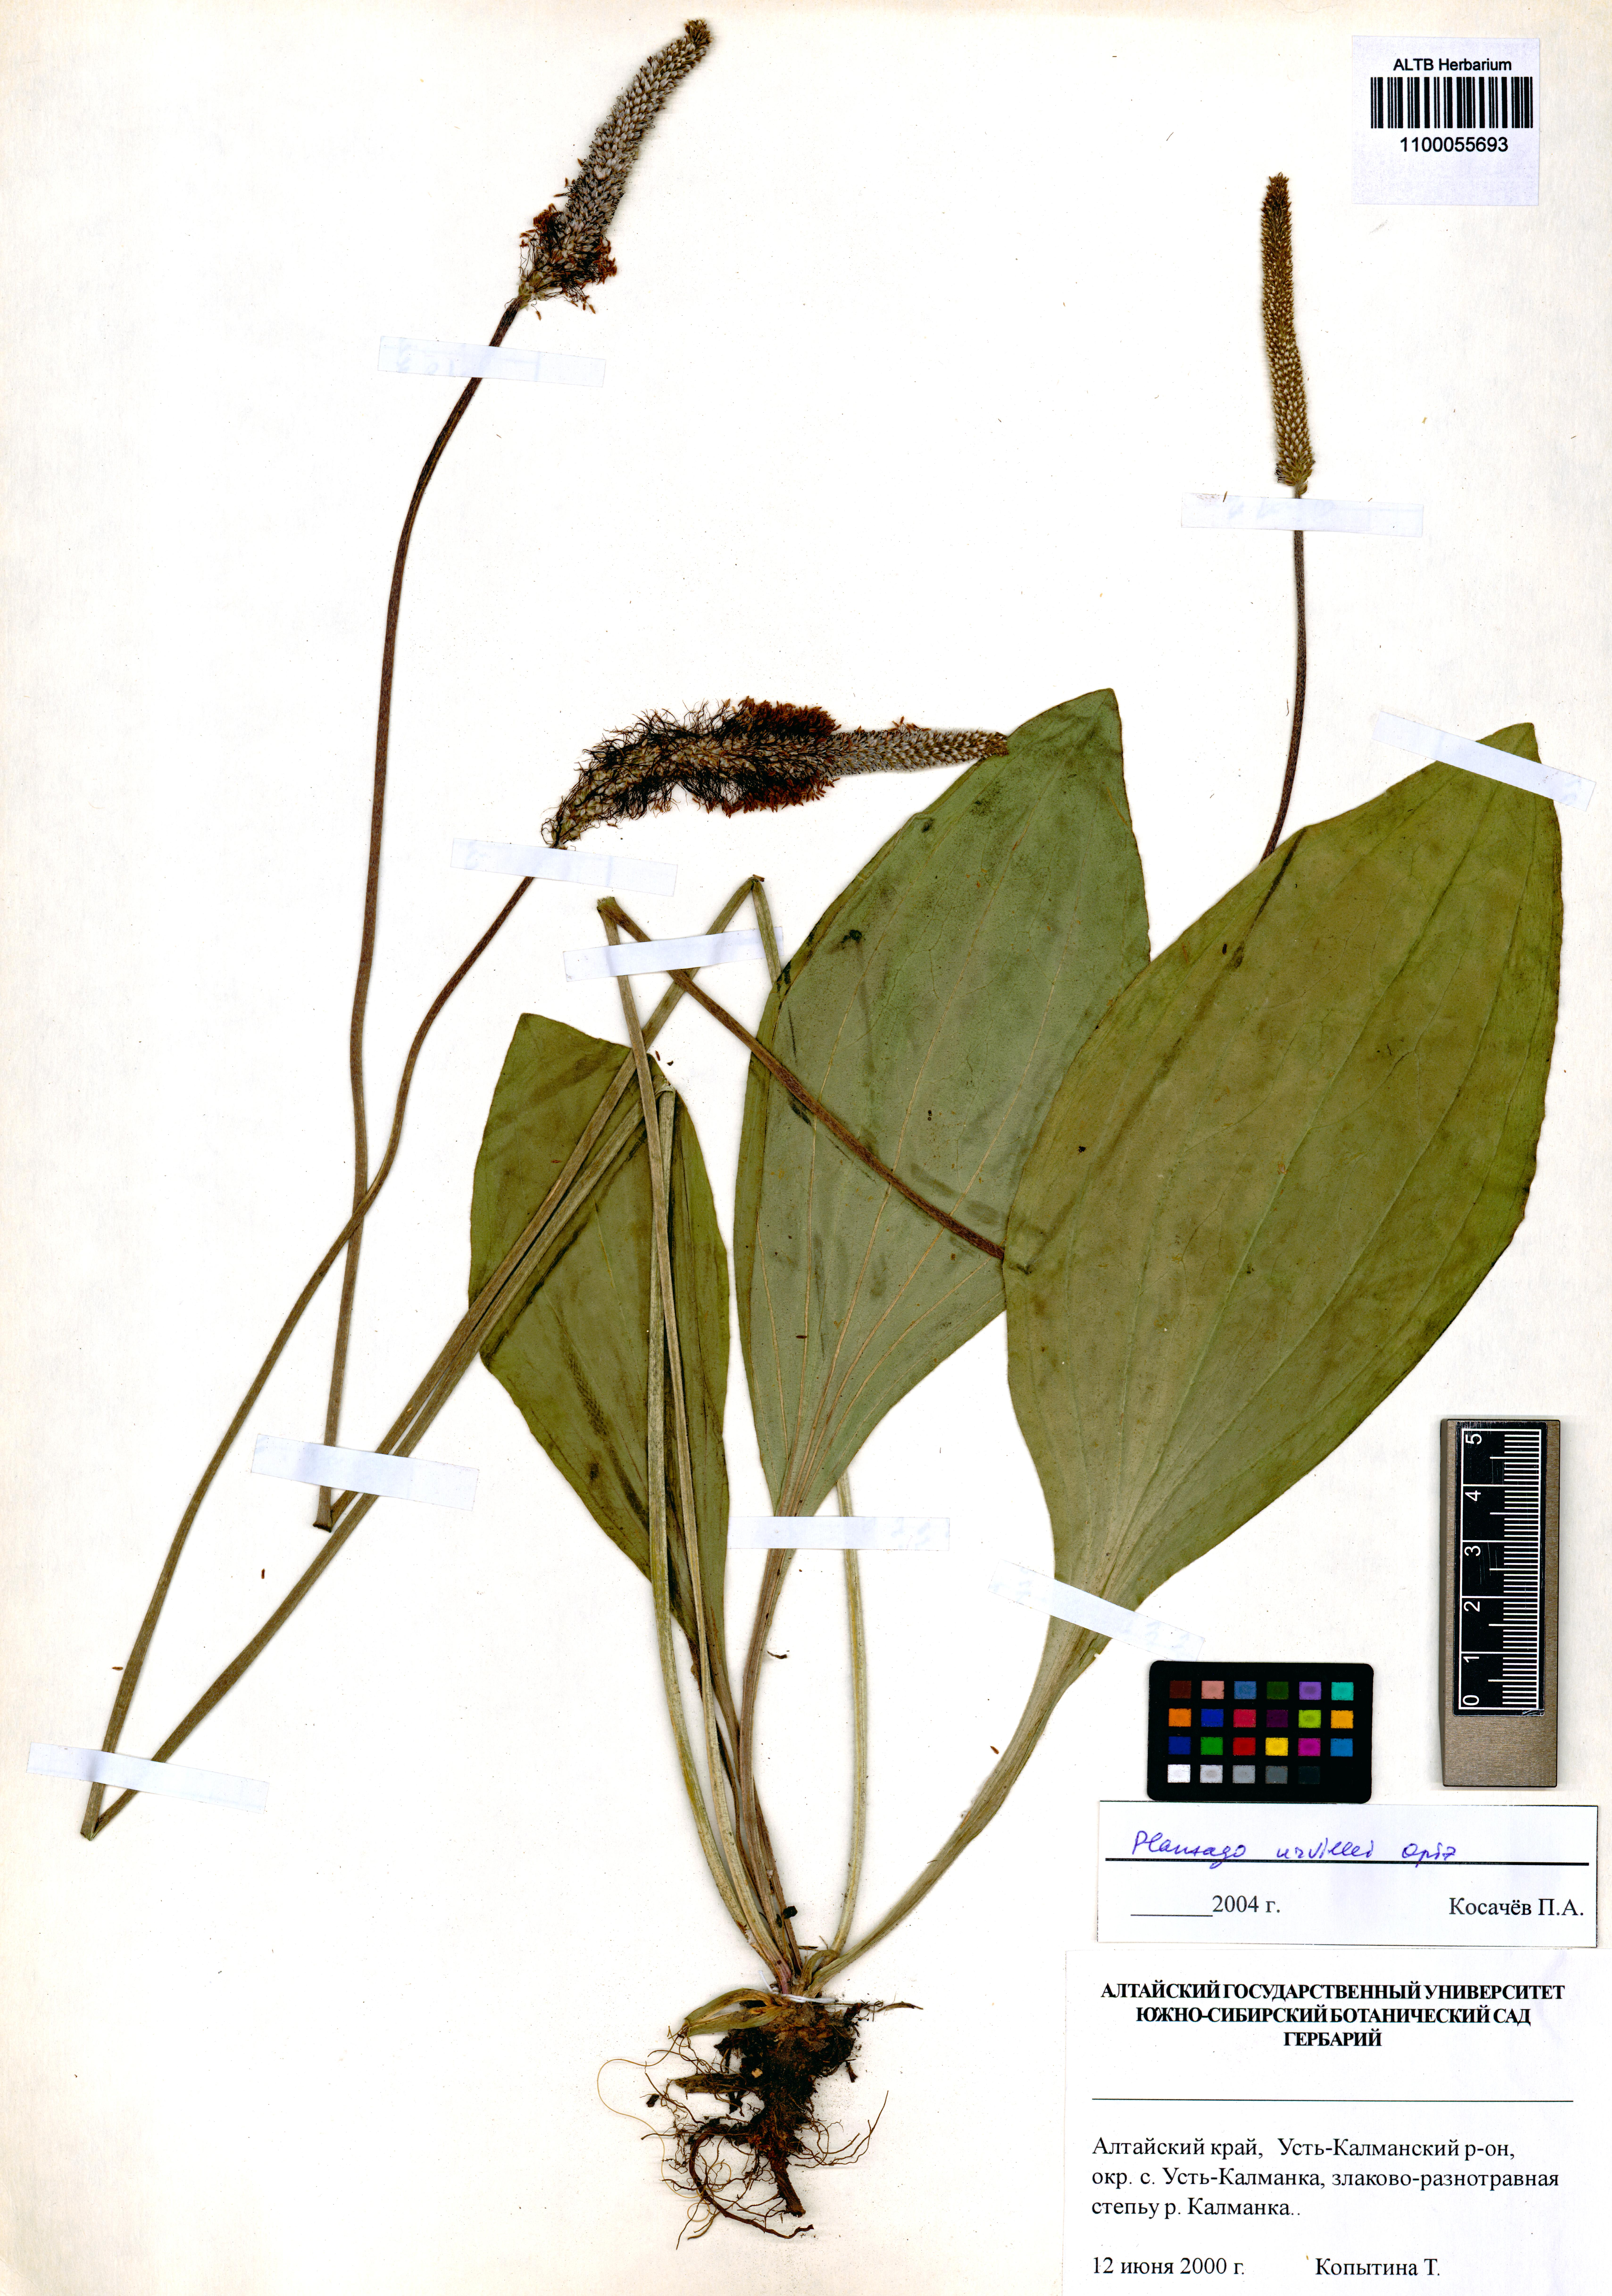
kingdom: Plantae
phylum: Tracheophyta
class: Magnoliopsida
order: Lamiales
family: Plantaginaceae
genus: Plantago
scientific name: Plantago urvillei
